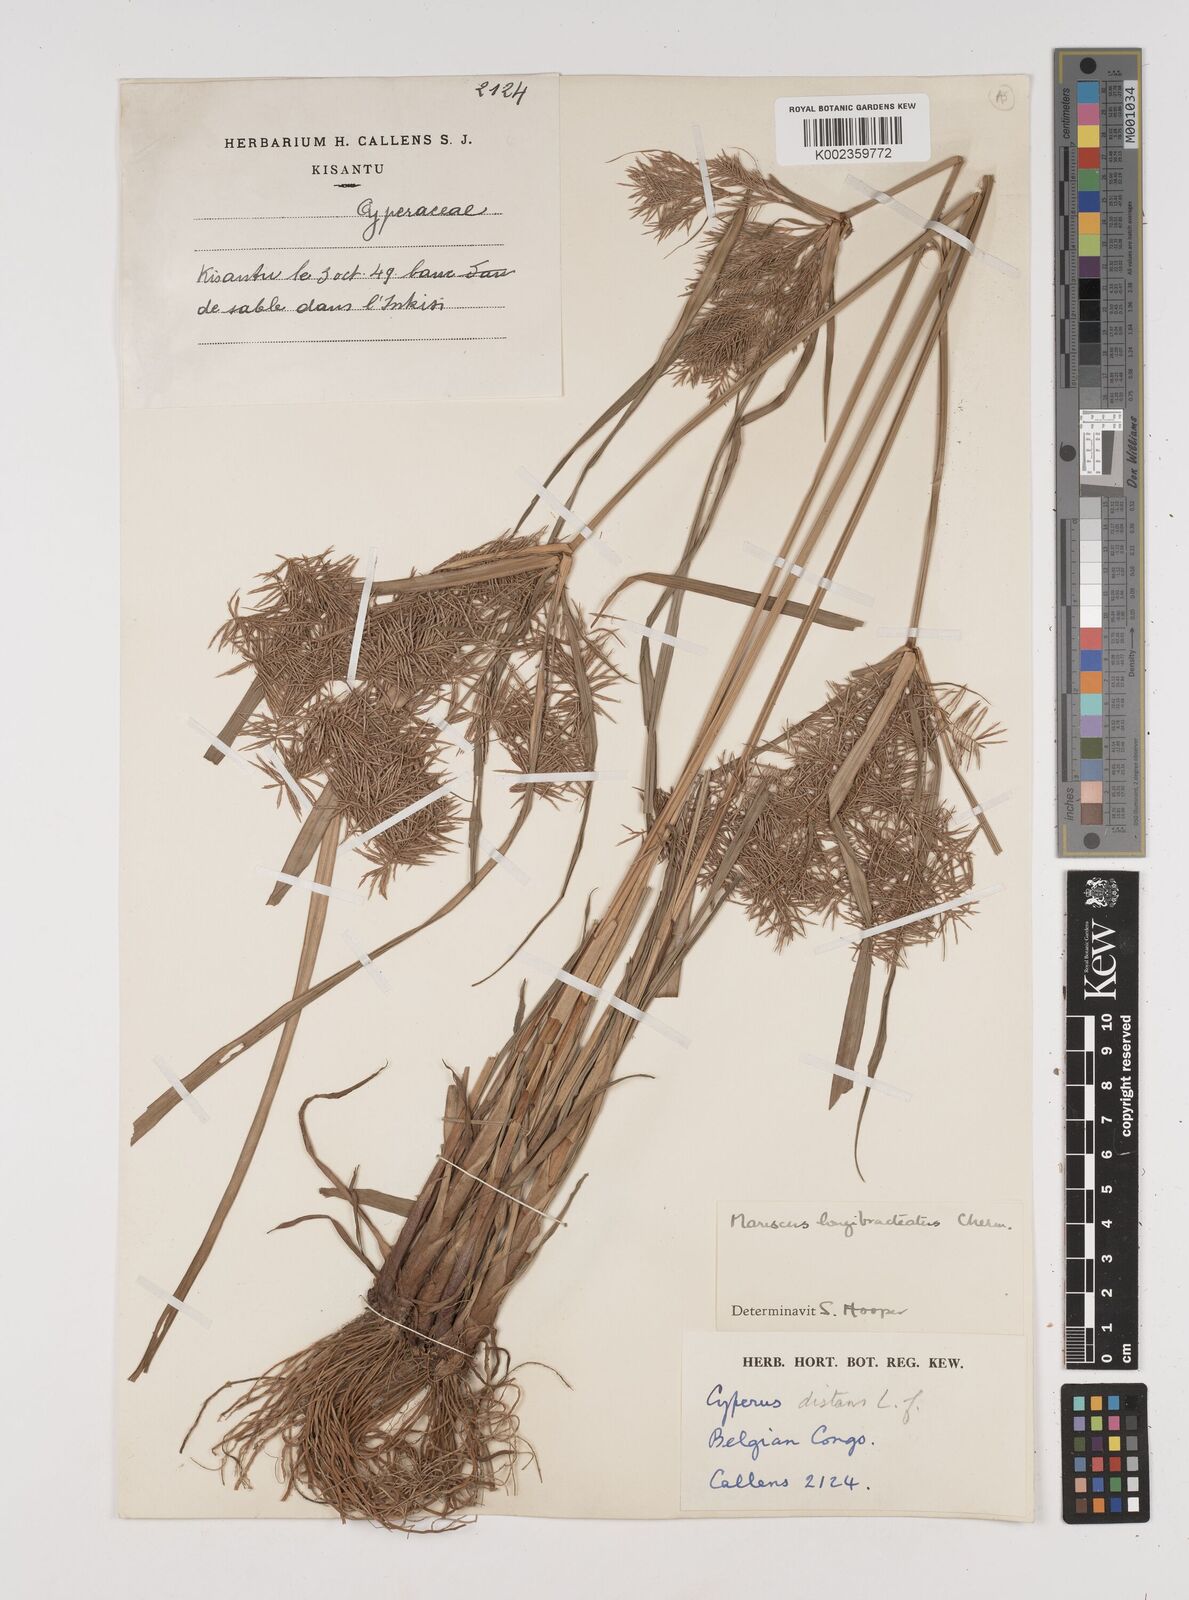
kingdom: Plantae
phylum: Tracheophyta
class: Liliopsida
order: Poales
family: Cyperaceae
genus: Cyperus
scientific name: Cyperus distans
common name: Slender cyperus
